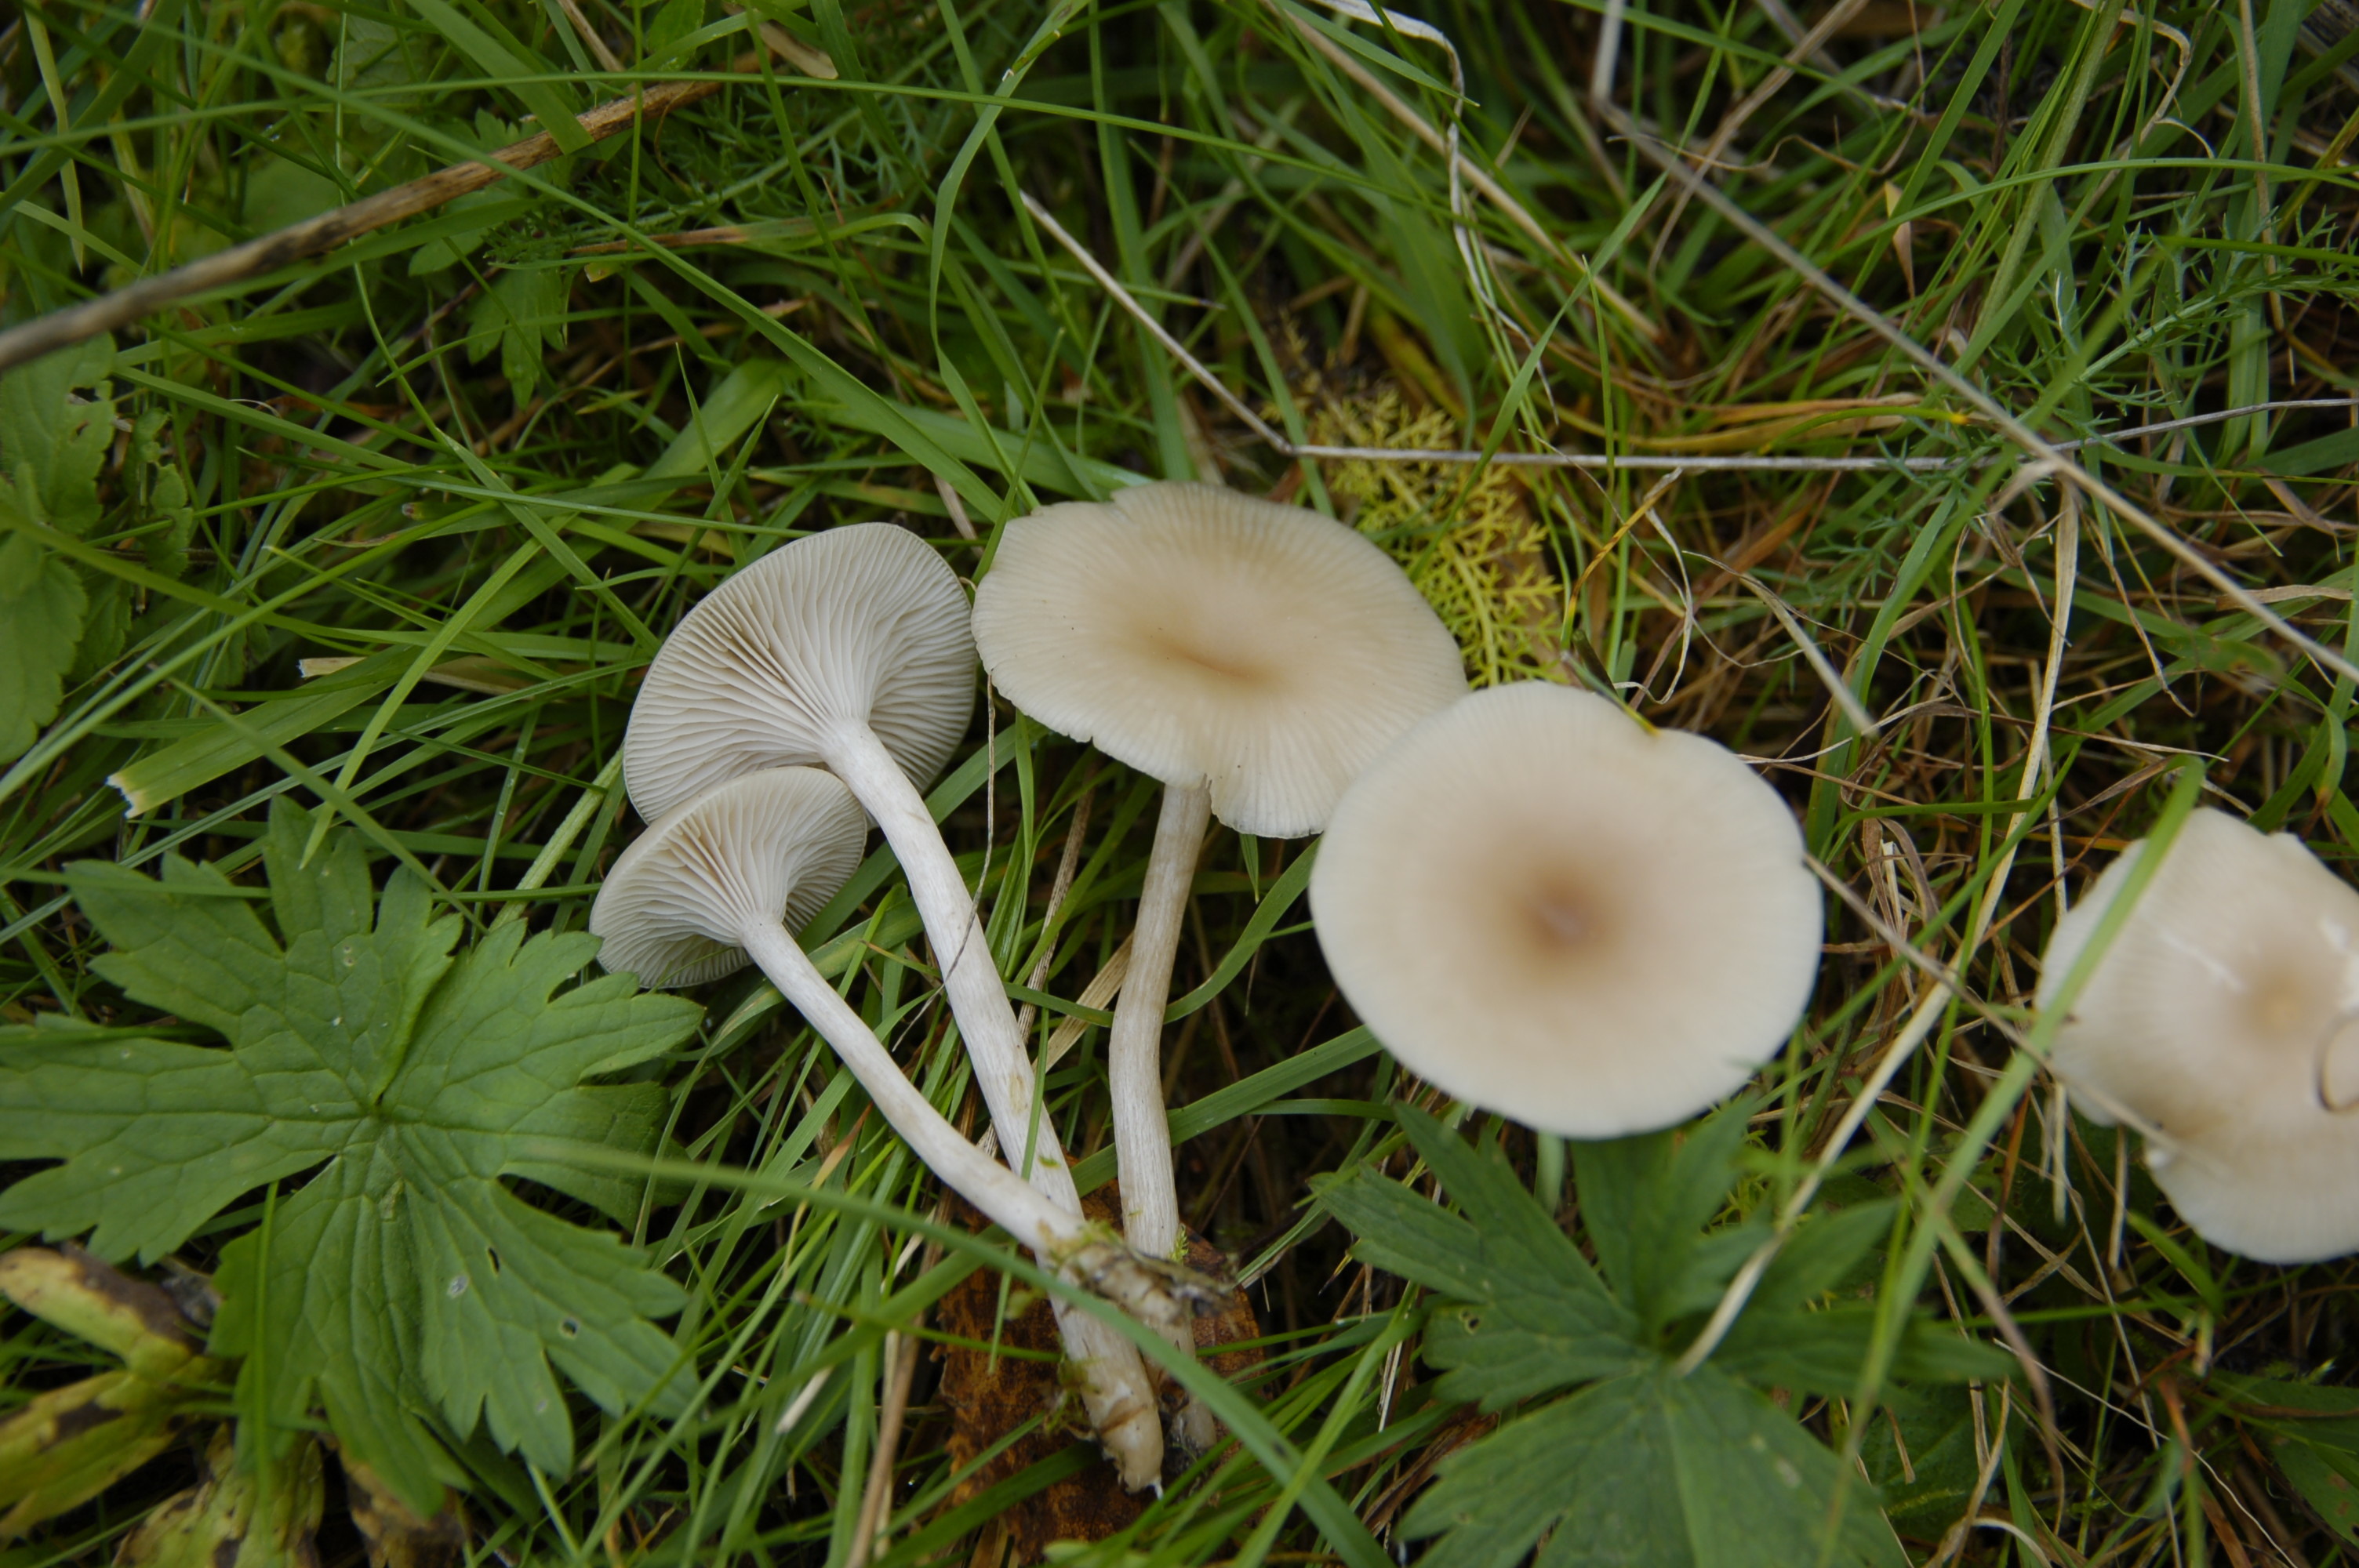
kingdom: Fungi
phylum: Basidiomycota
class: Agaricomycetes
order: Agaricales
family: Tricholomataceae
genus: Clitocybe
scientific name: Clitocybe fragrans
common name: Fragrant funnel
